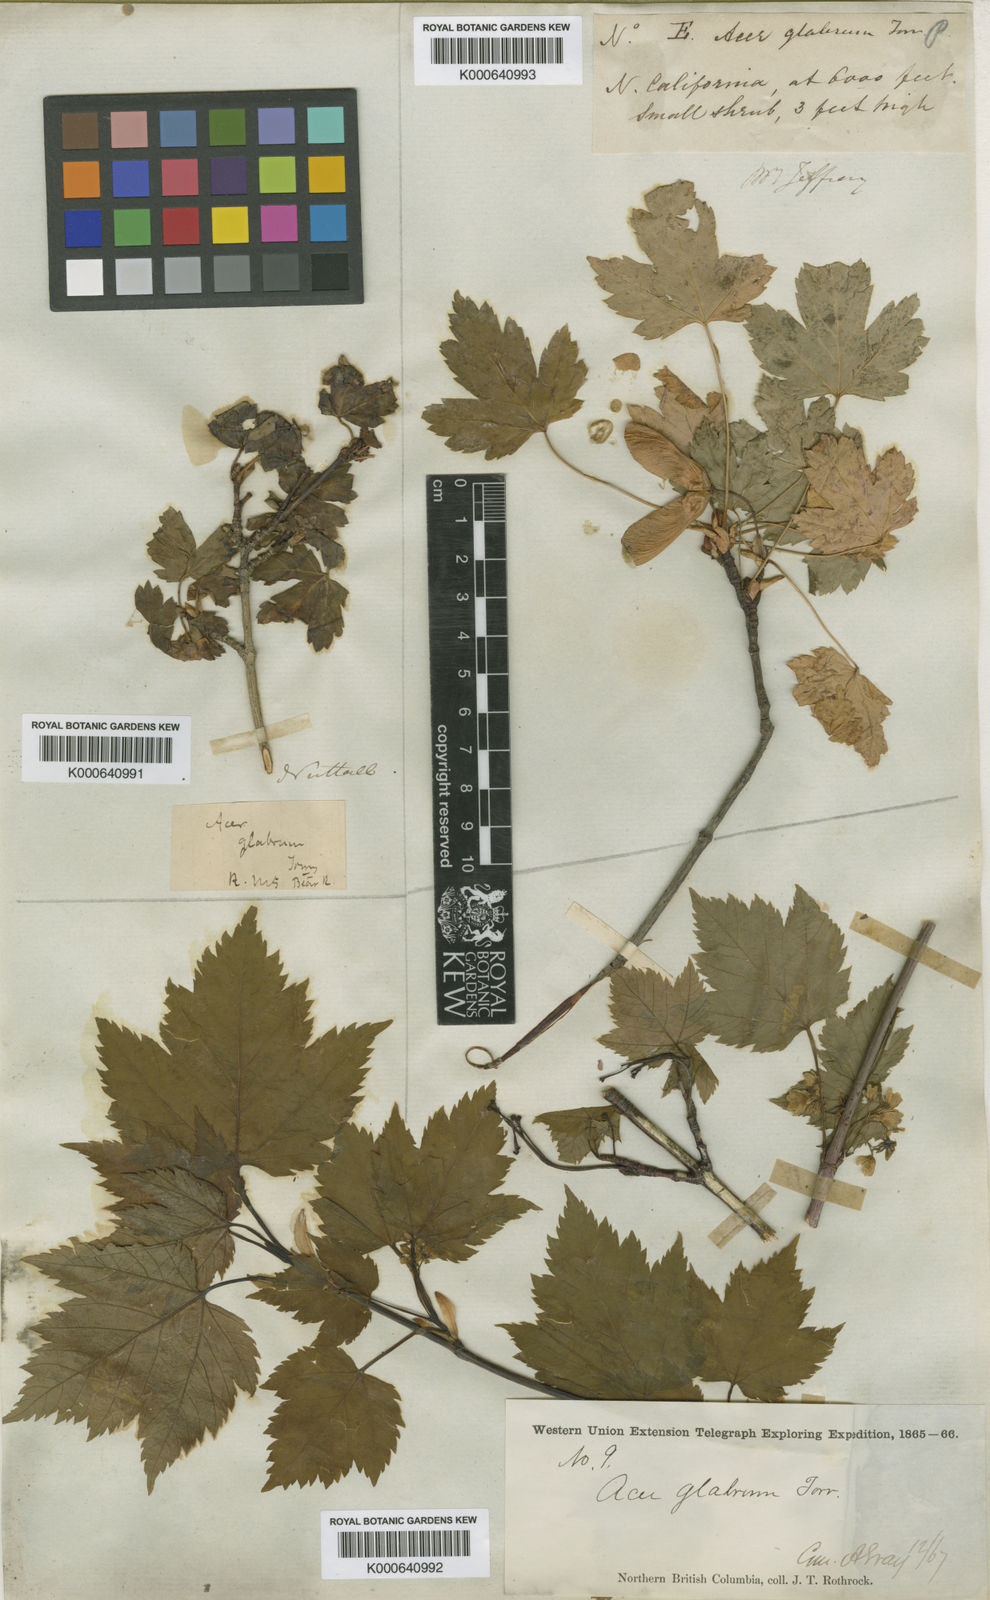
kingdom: Plantae
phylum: Tracheophyta
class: Magnoliopsida
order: Sapindales
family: Sapindaceae
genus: Acer
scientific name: Acer glabrum
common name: Rocky mountain maple
